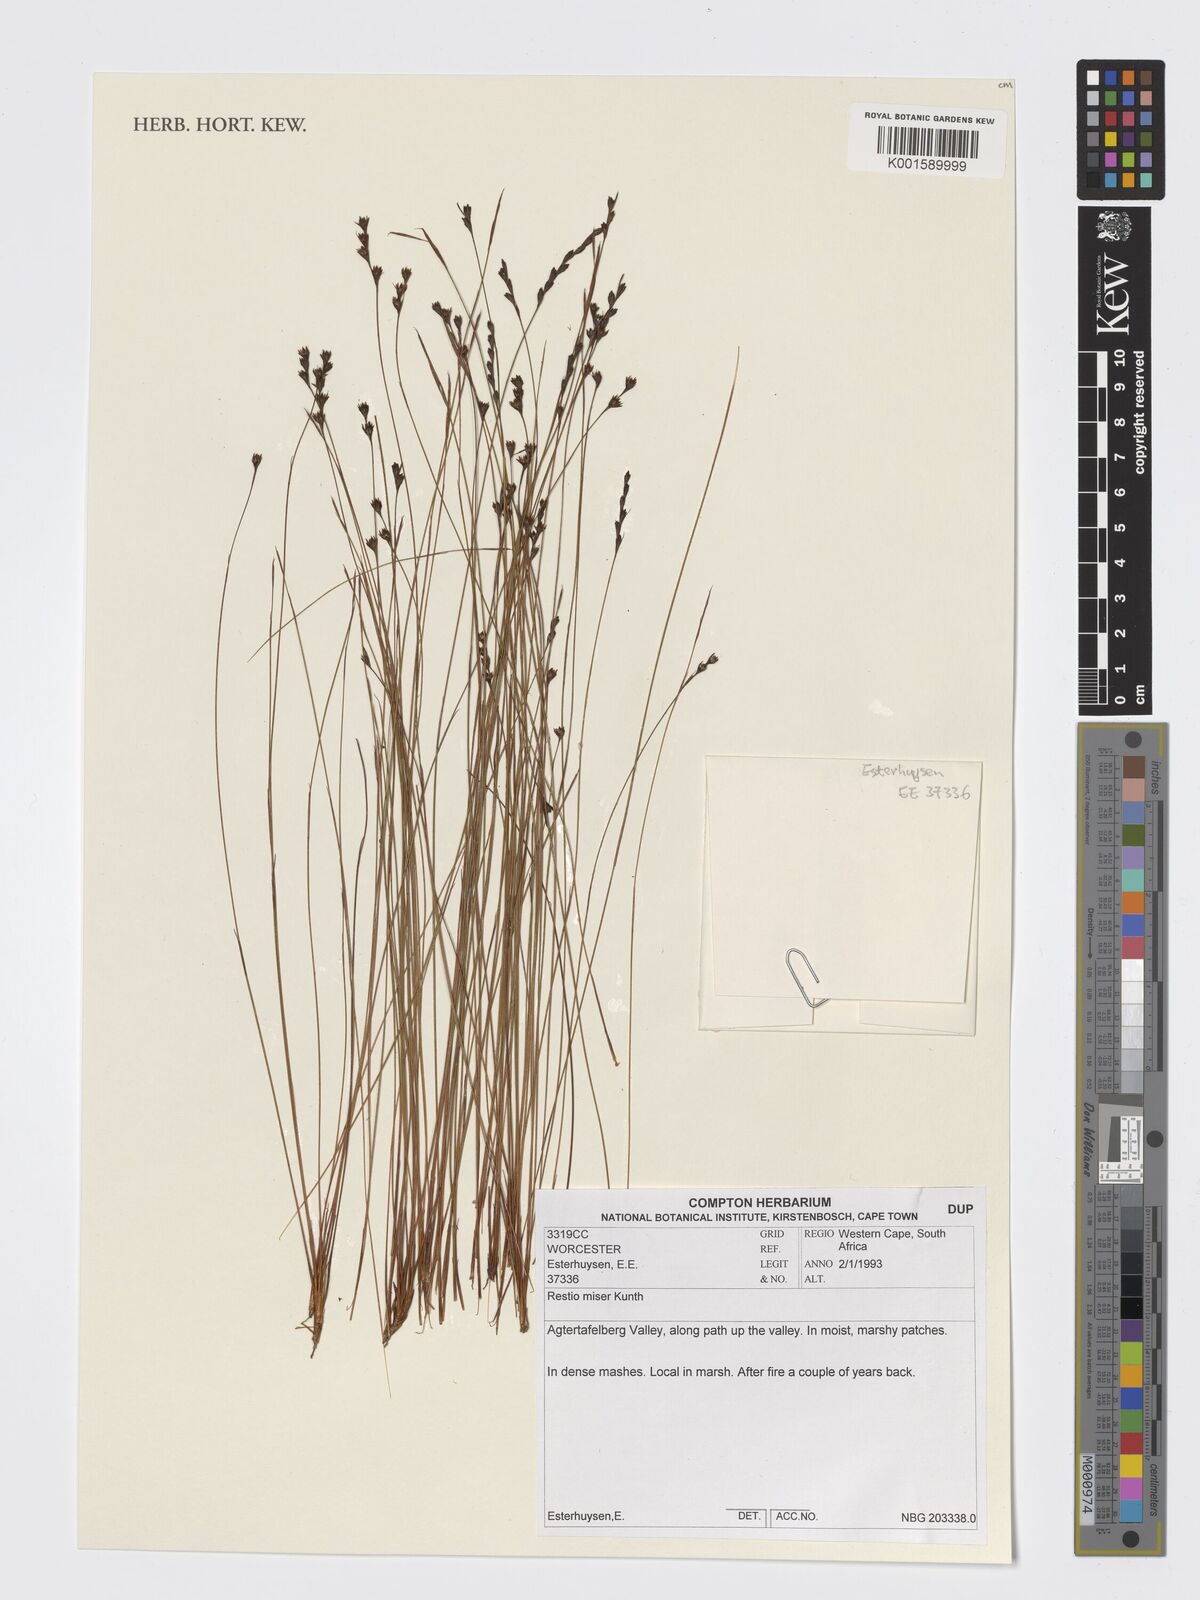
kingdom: Plantae
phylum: Tracheophyta
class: Liliopsida
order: Poales
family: Restionaceae
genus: Restio
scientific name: Restio miser
